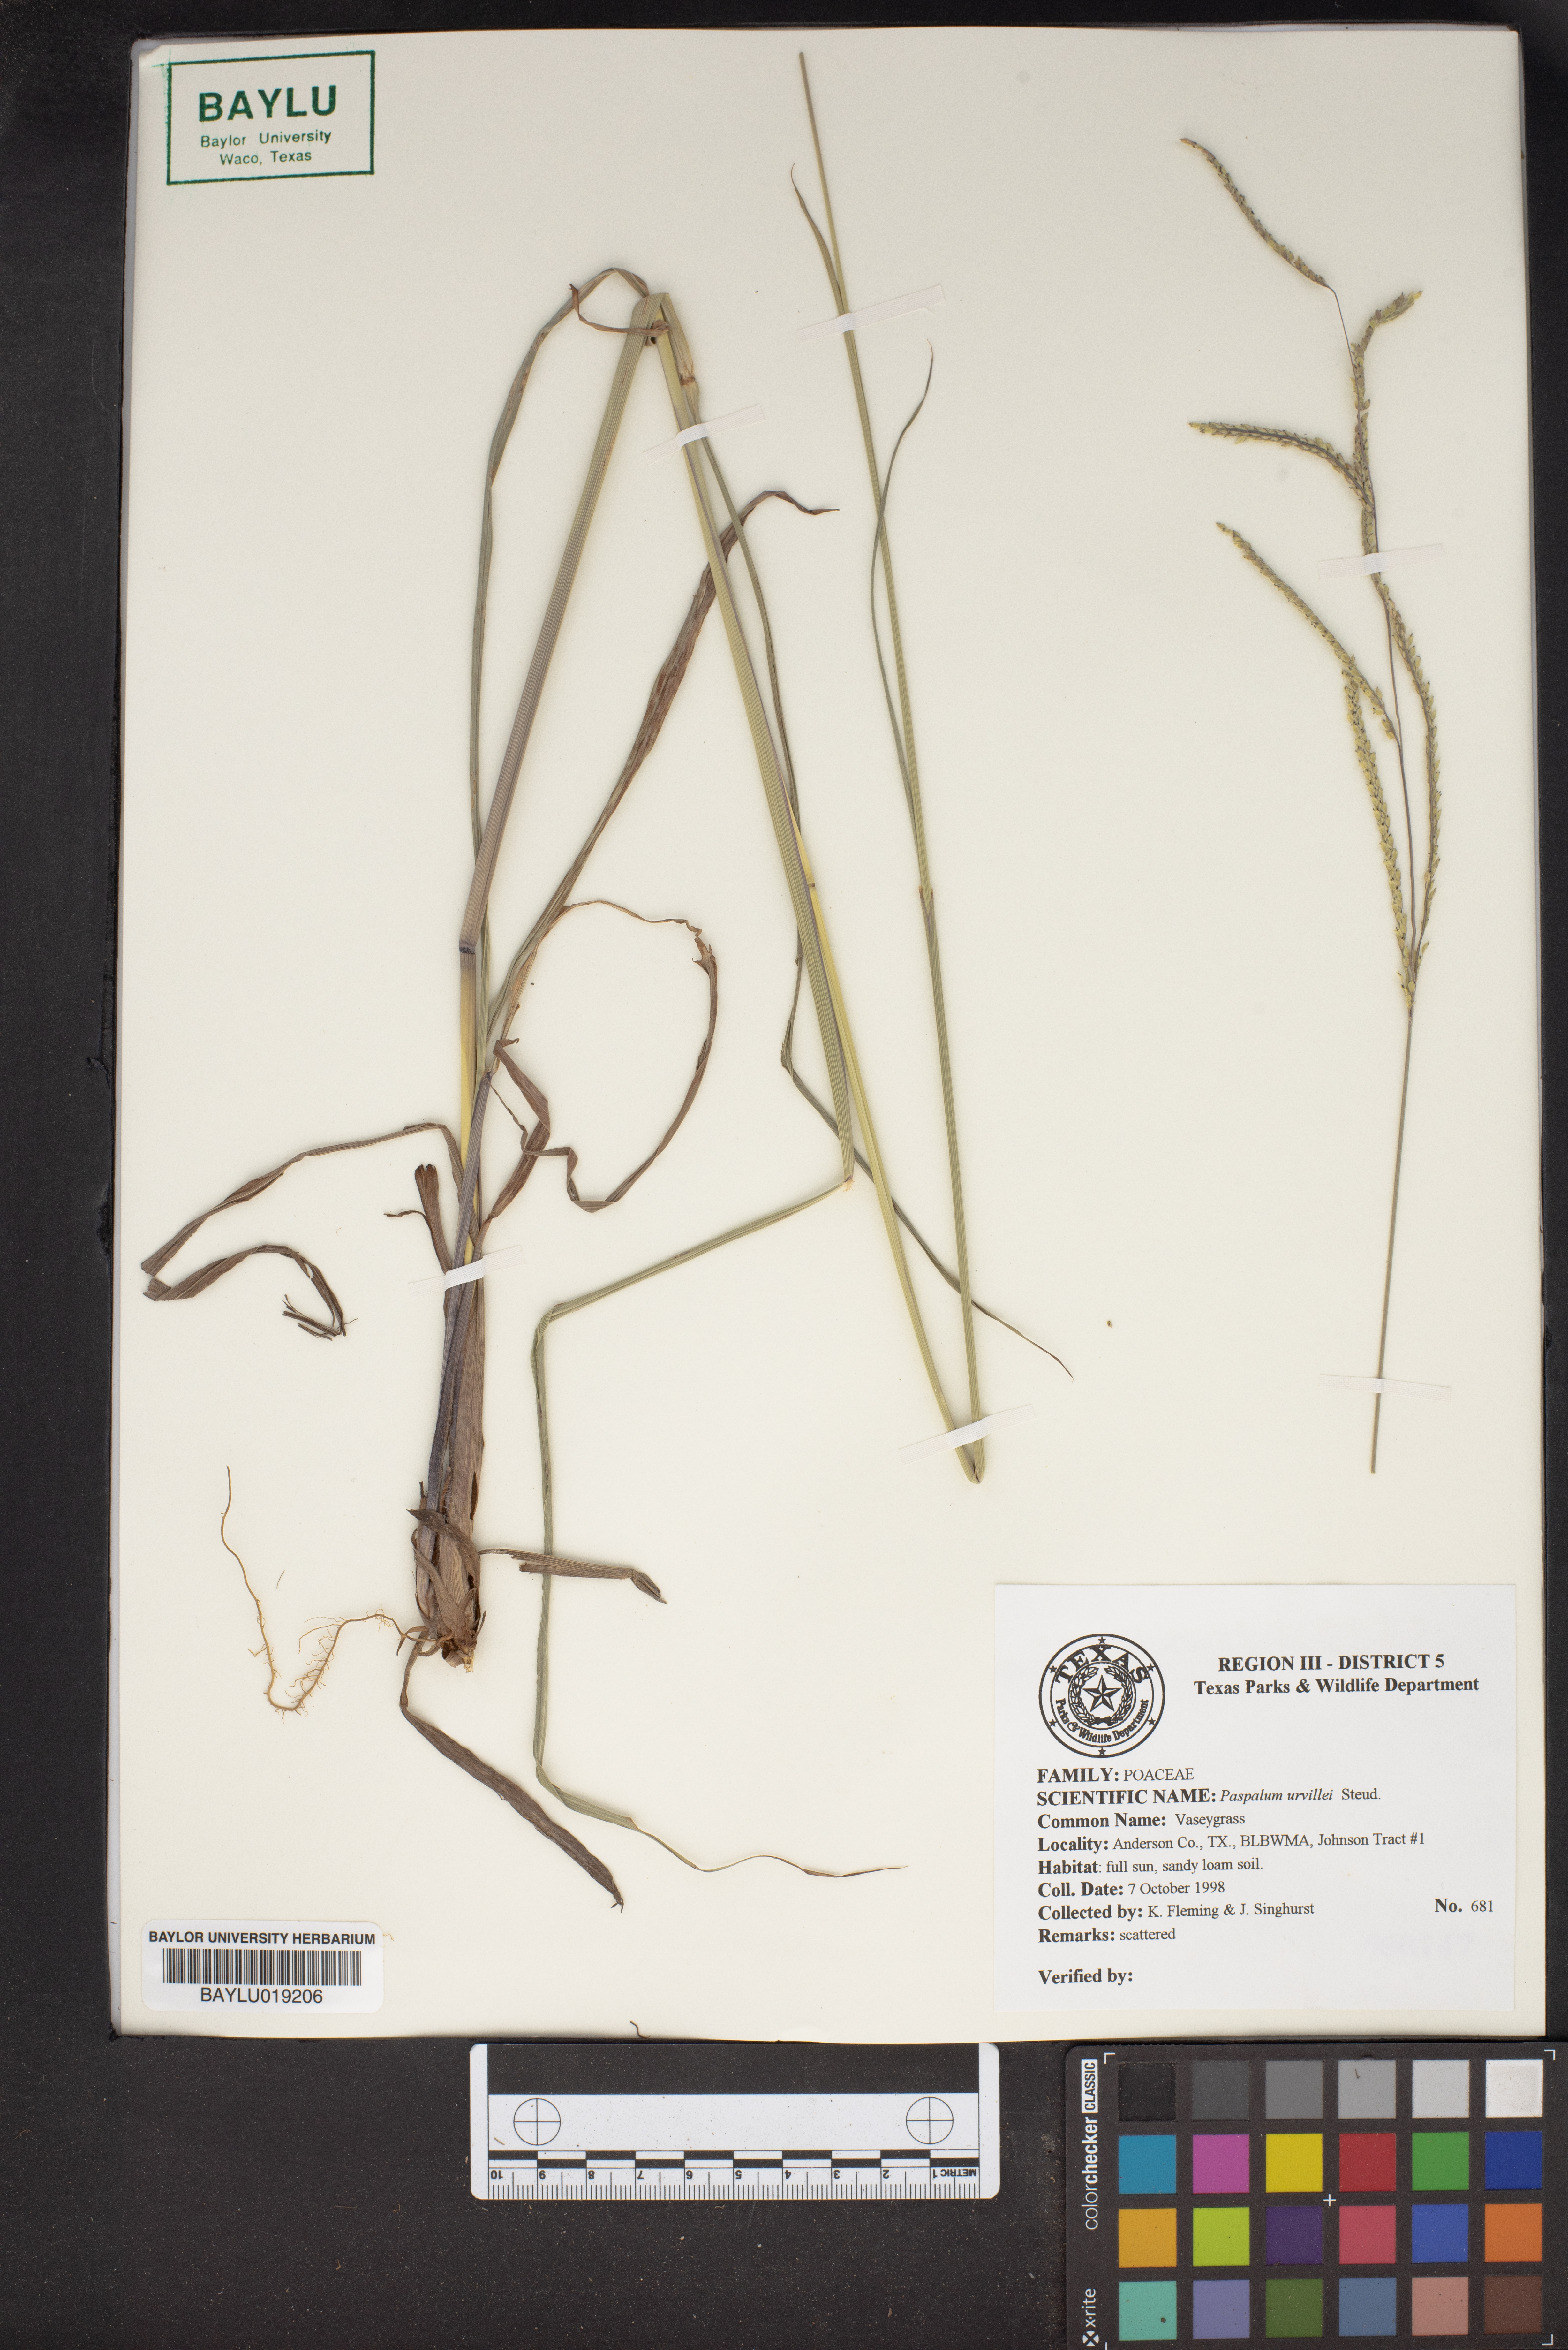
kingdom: Plantae
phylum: Tracheophyta
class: Liliopsida
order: Poales
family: Poaceae
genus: Paspalum
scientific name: Paspalum urvillei
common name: Vasey's grass
